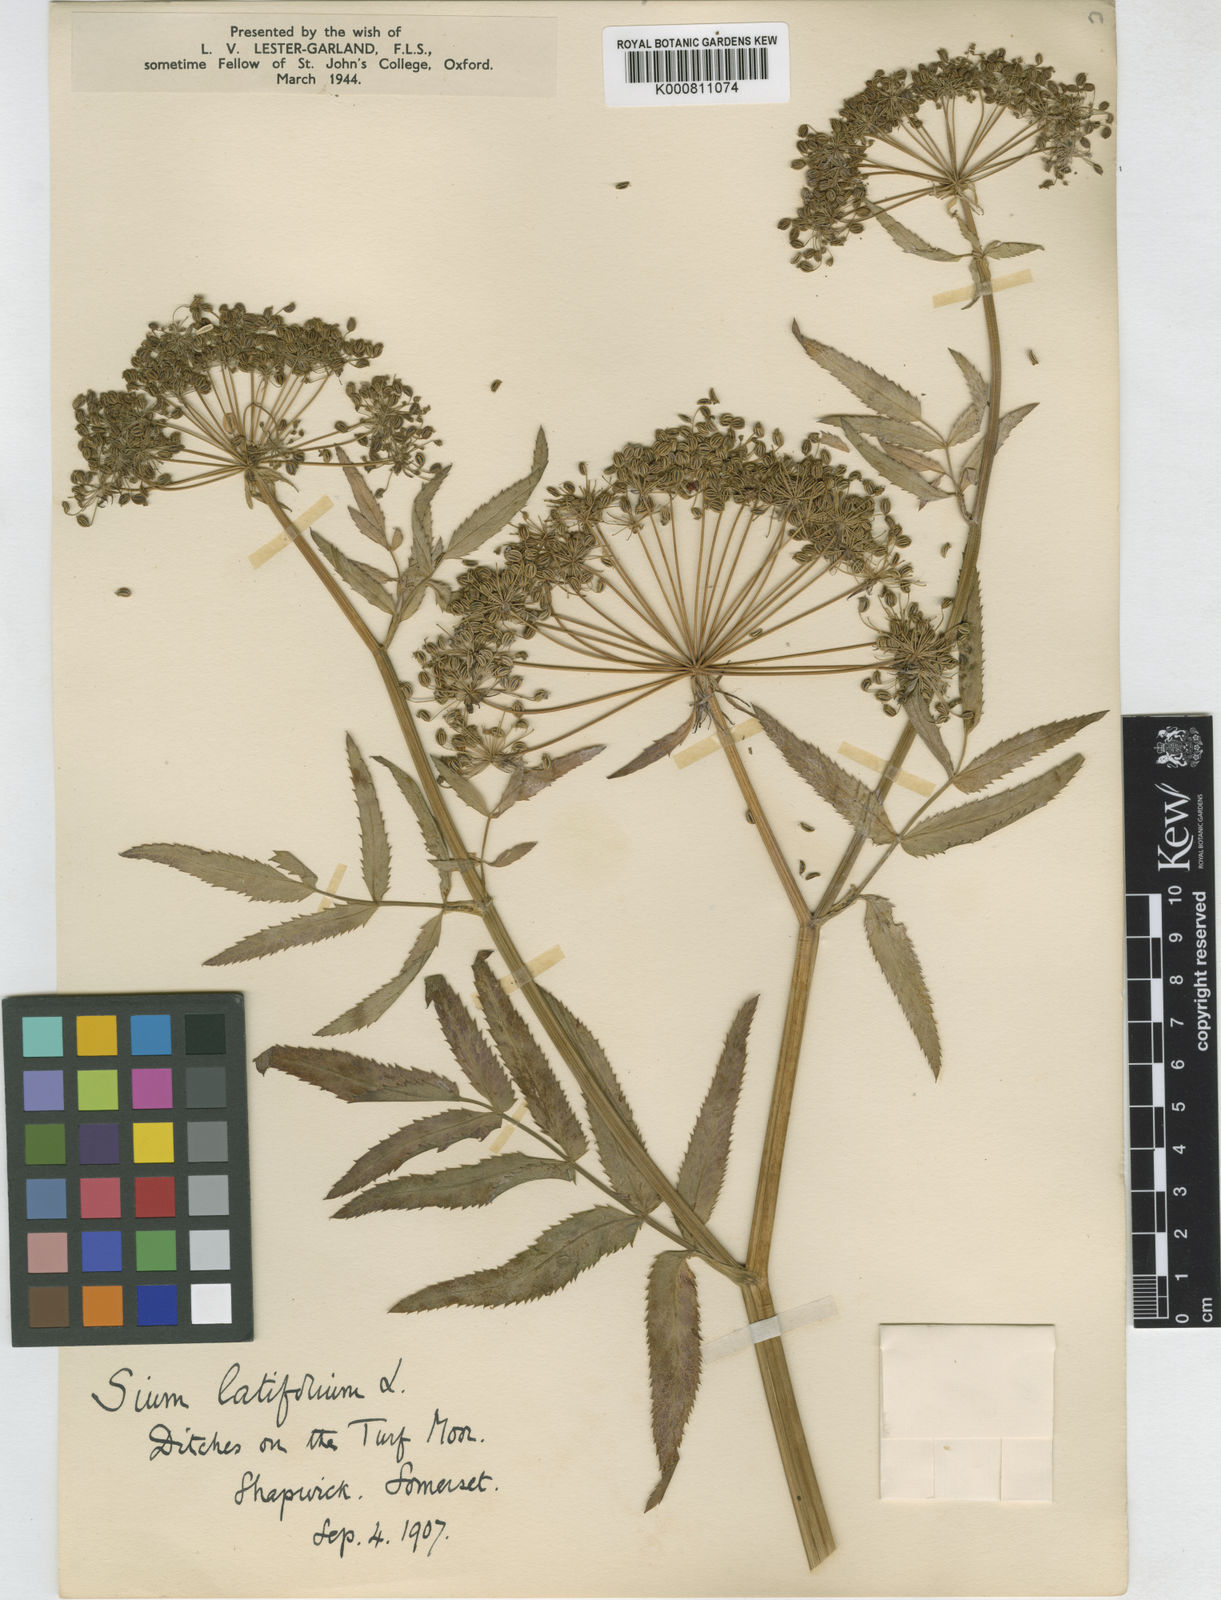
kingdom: Plantae
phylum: Tracheophyta
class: Magnoliopsida
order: Apiales
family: Apiaceae
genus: Sium
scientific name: Sium latifolium
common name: Greater water-parsnip
